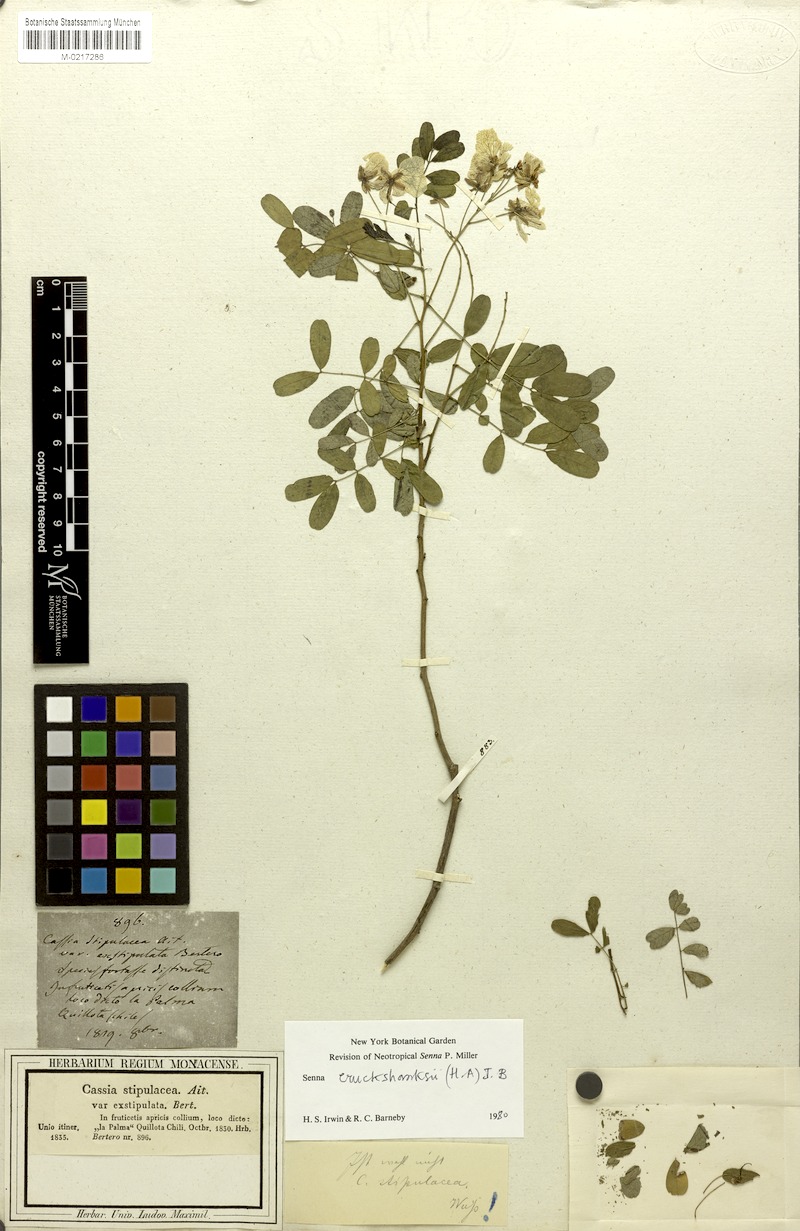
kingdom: Plantae
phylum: Tracheophyta
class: Magnoliopsida
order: Fabales
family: Fabaceae
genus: Senna
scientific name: Senna cruckshanksii
